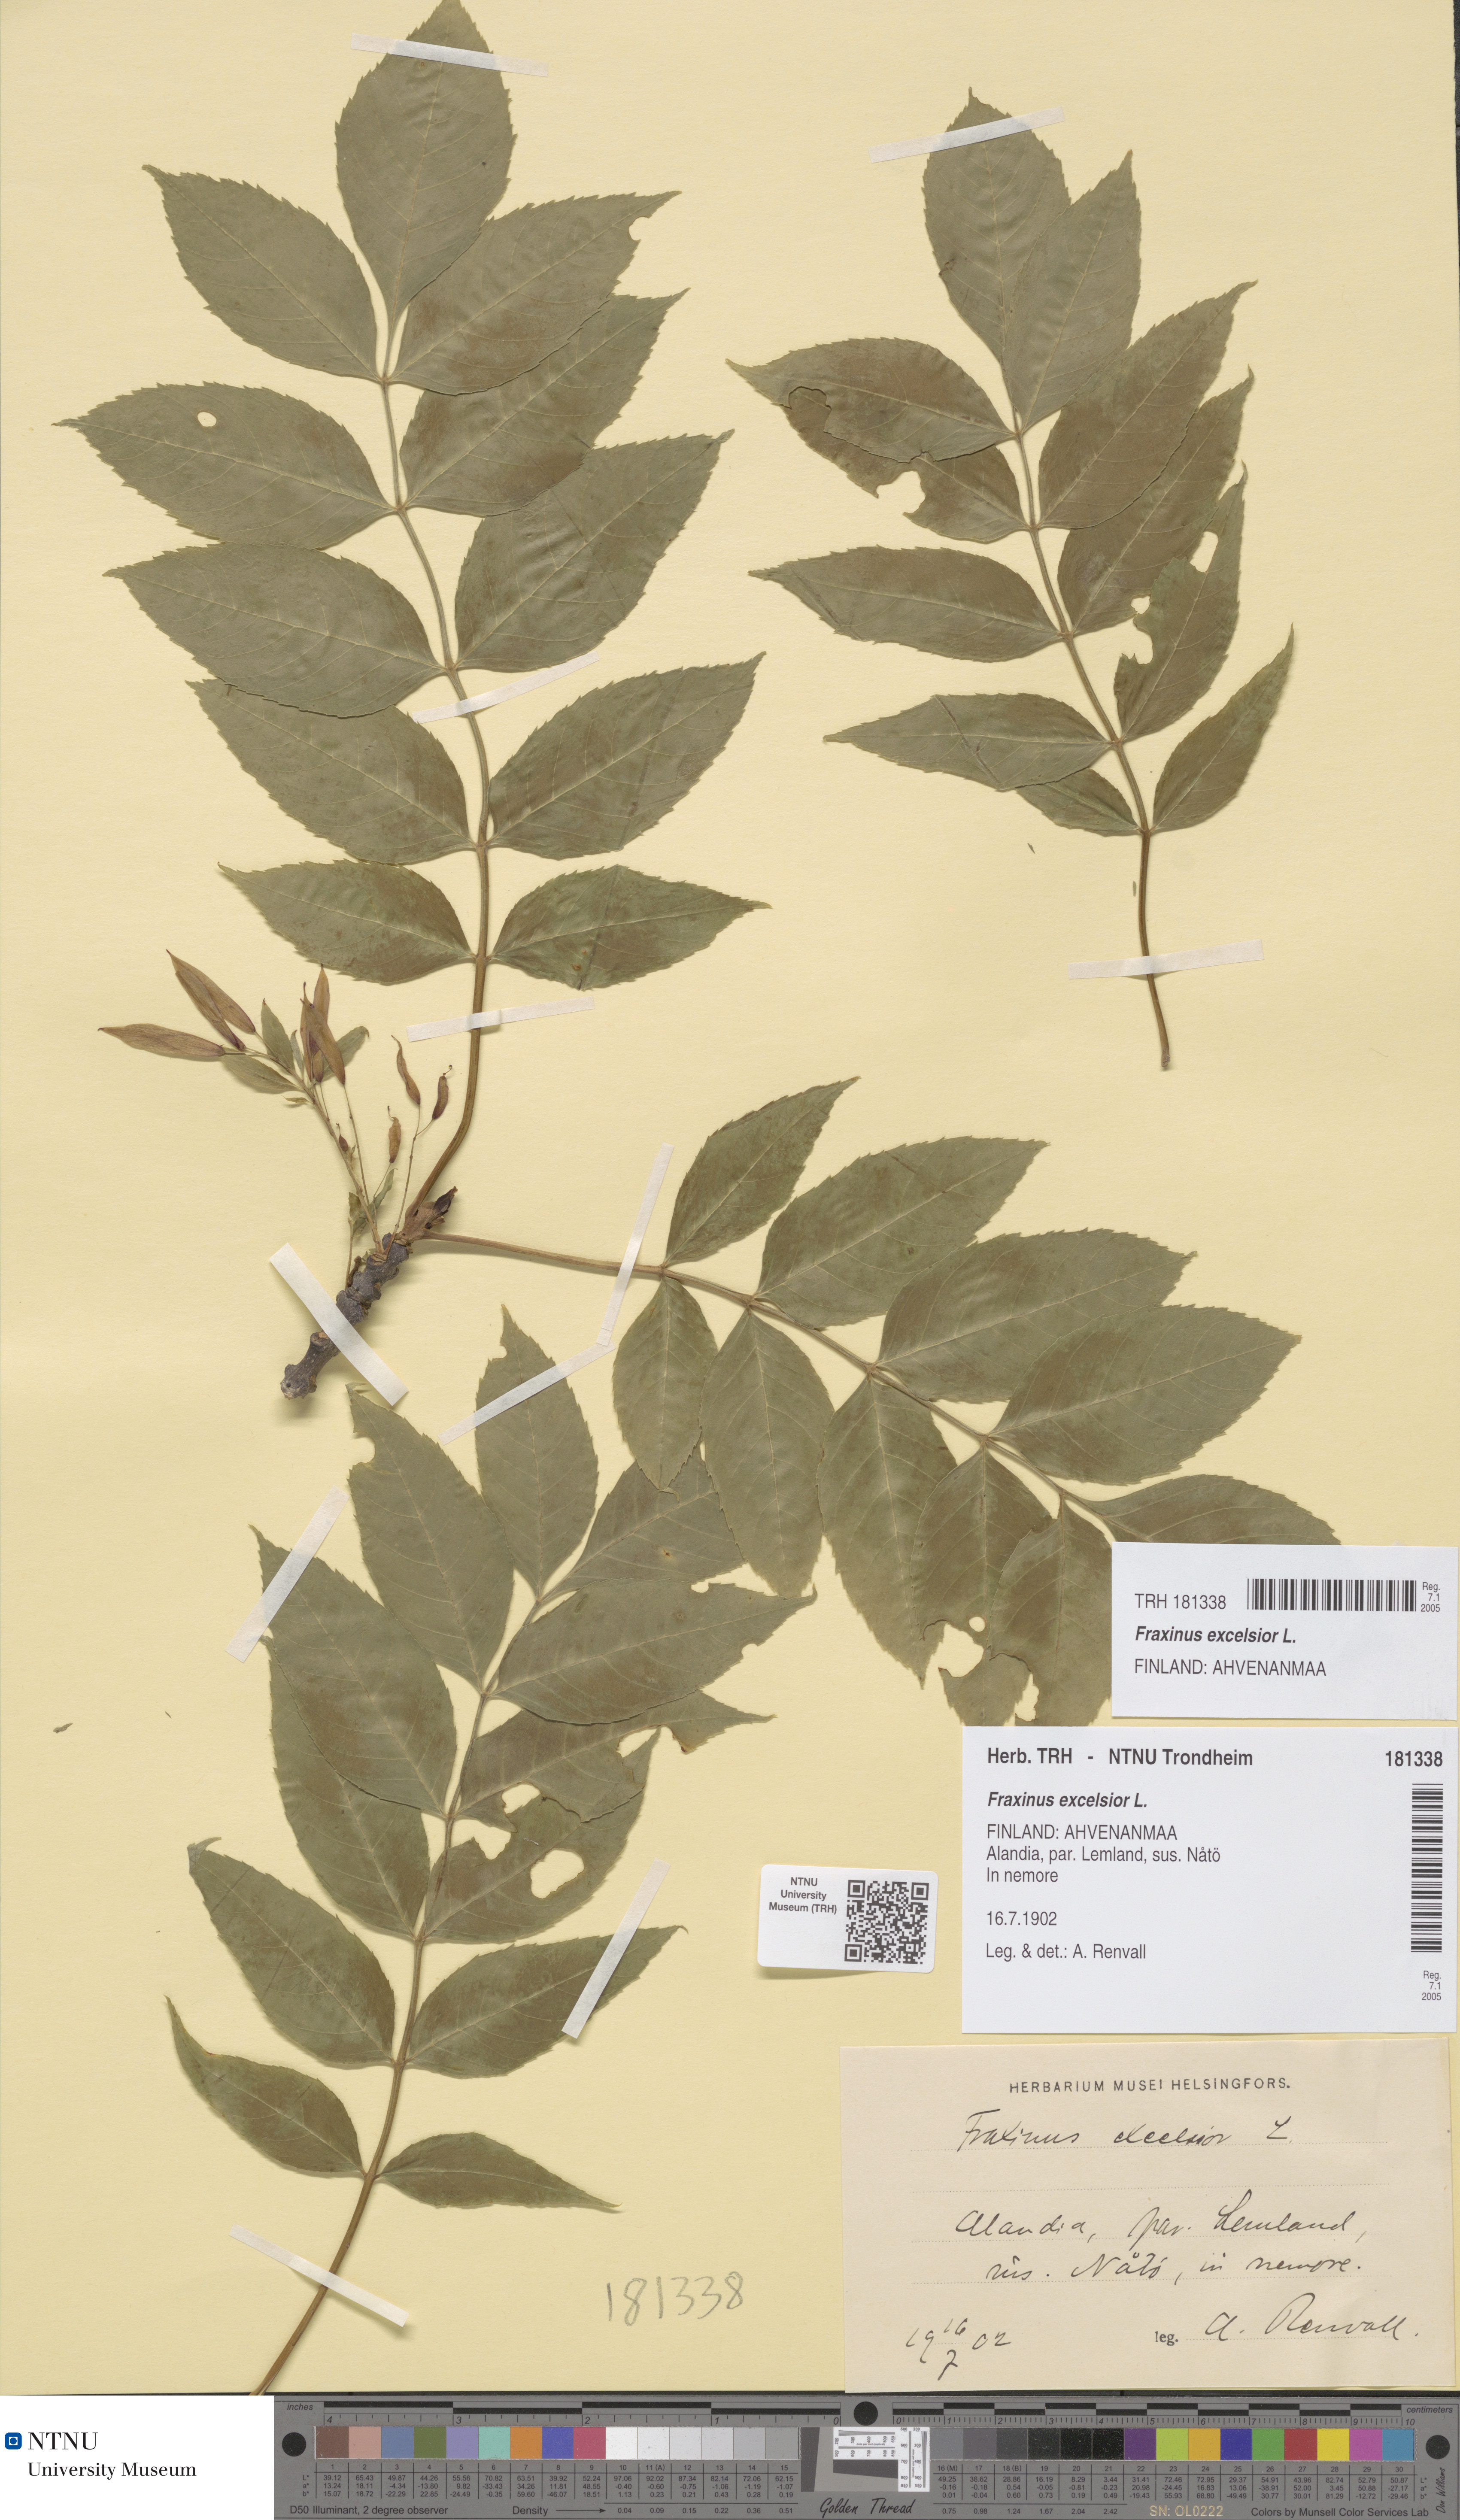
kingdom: Plantae
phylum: Tracheophyta
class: Magnoliopsida
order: Lamiales
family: Oleaceae
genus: Fraxinus
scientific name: Fraxinus excelsior
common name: European ash
